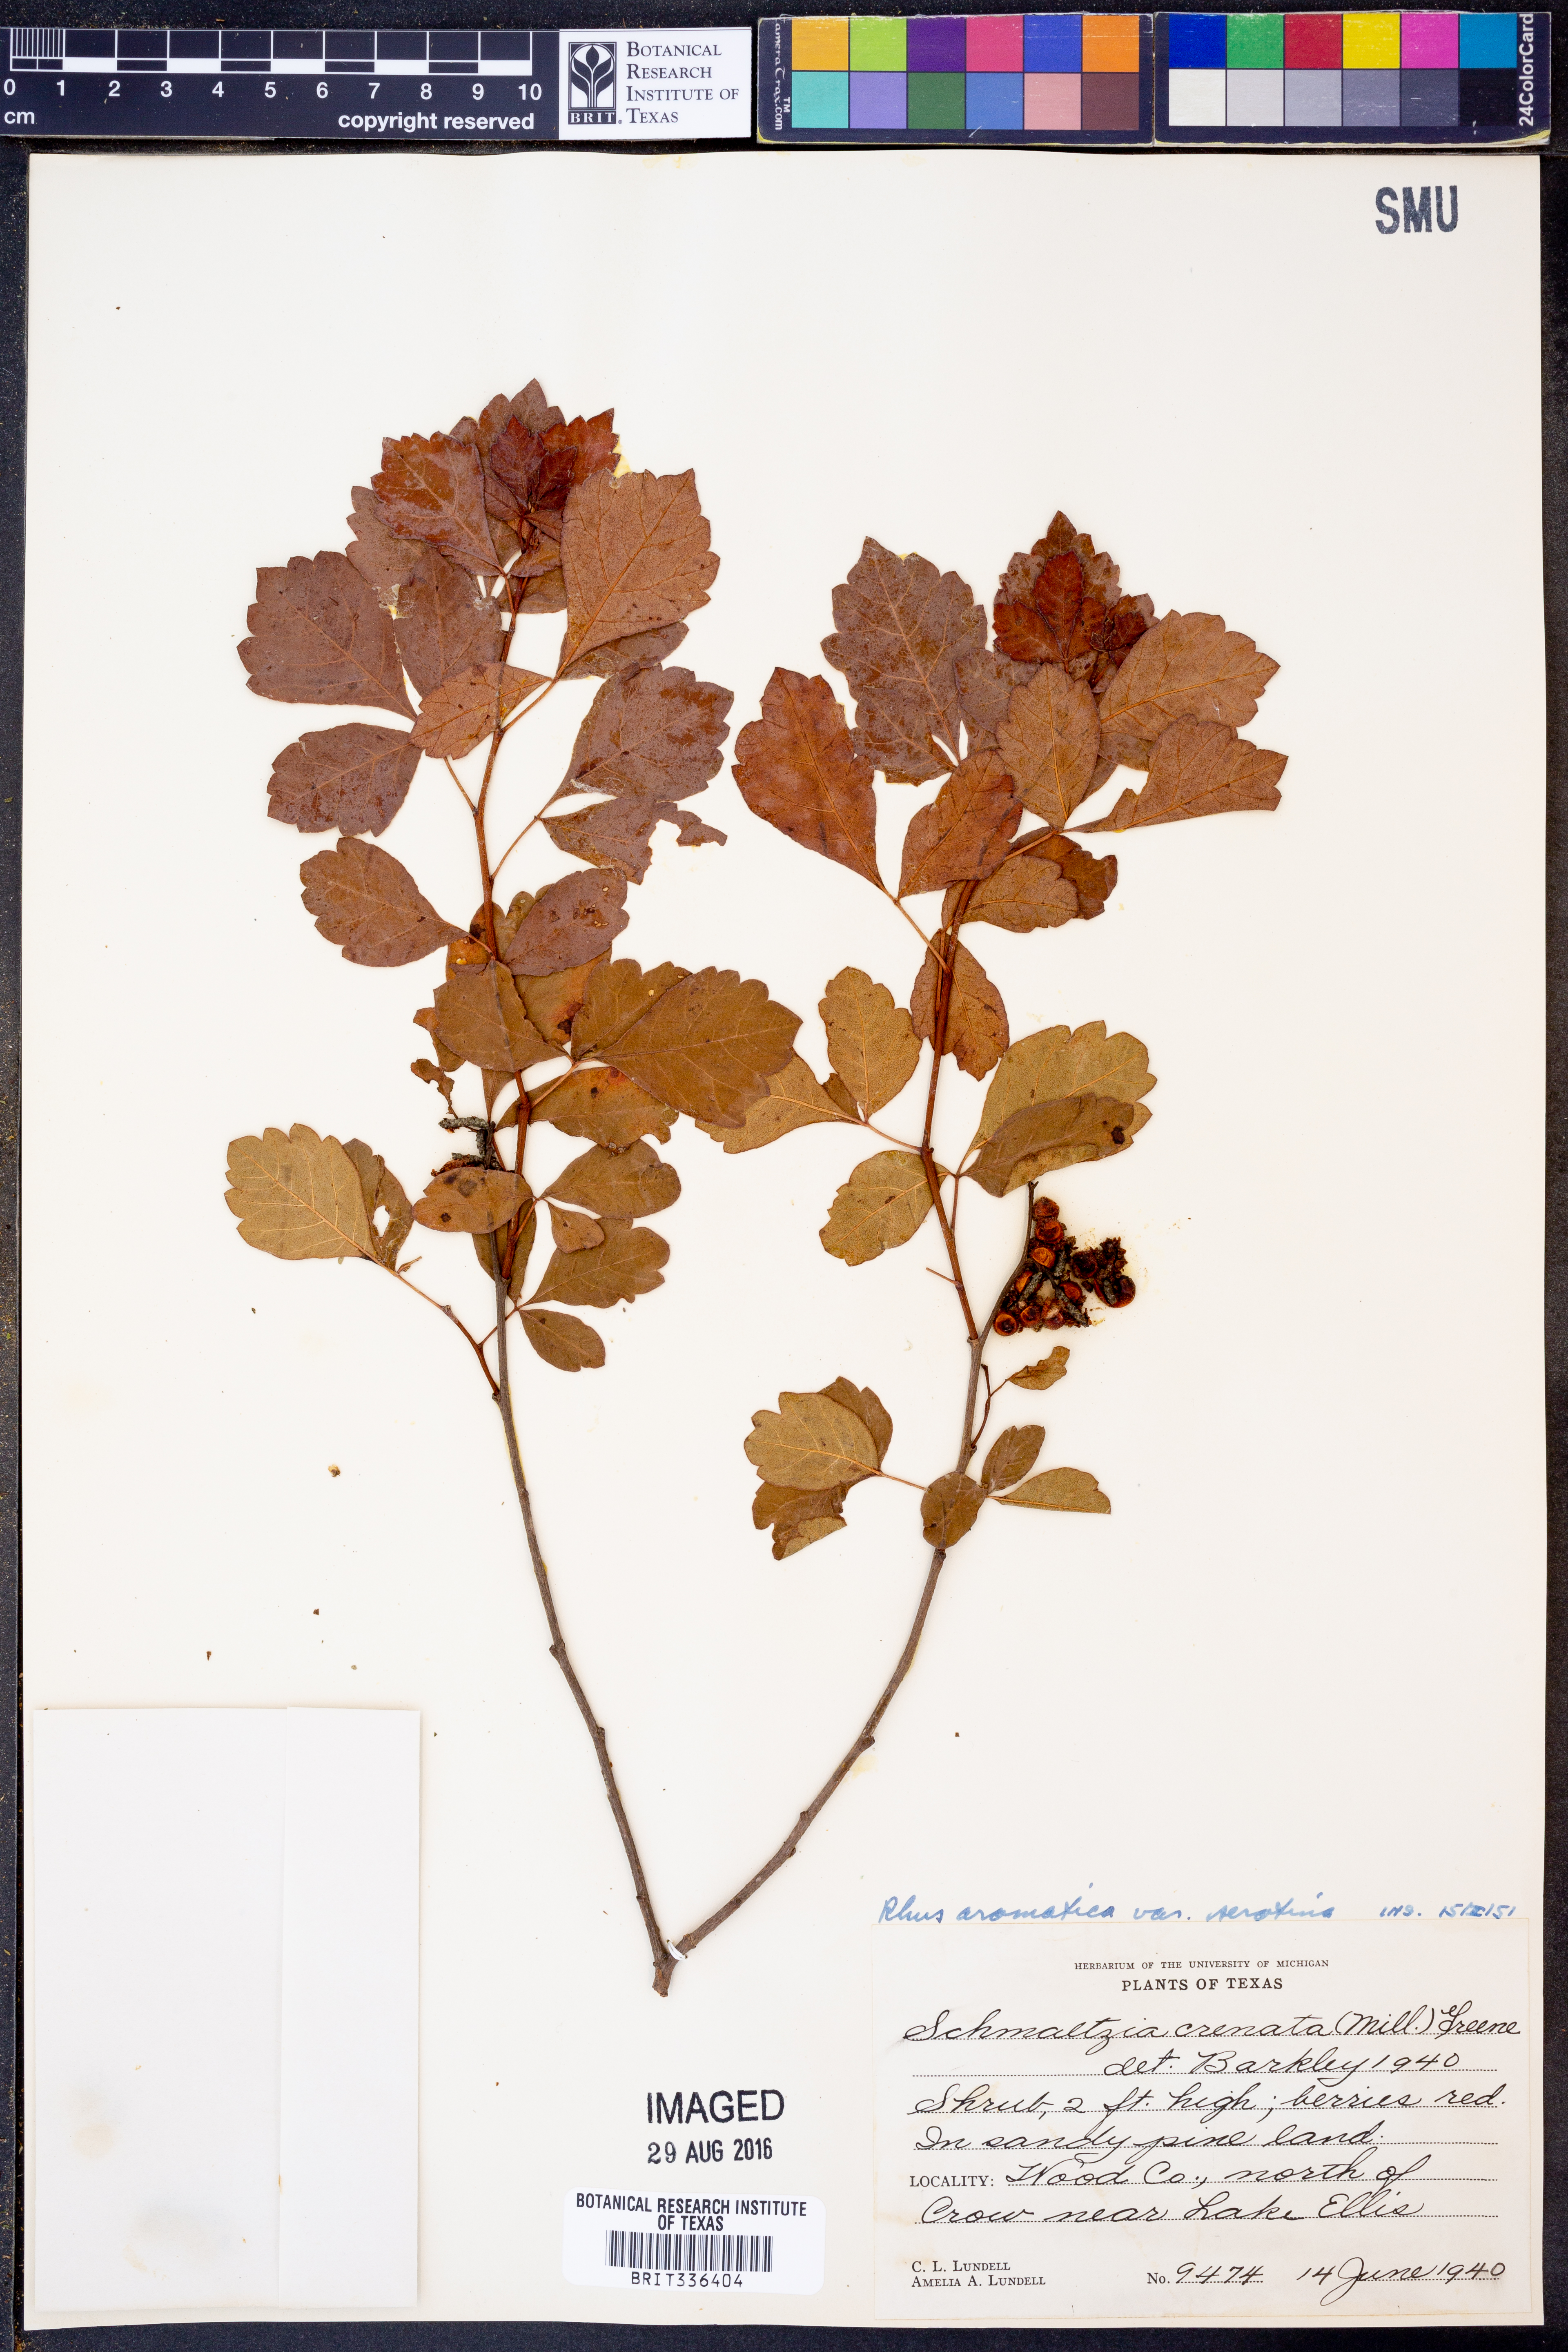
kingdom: Plantae
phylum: Tracheophyta
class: Magnoliopsida
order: Sapindales
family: Anacardiaceae
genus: Rhus
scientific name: Rhus aromatica
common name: Aromatic sumac
